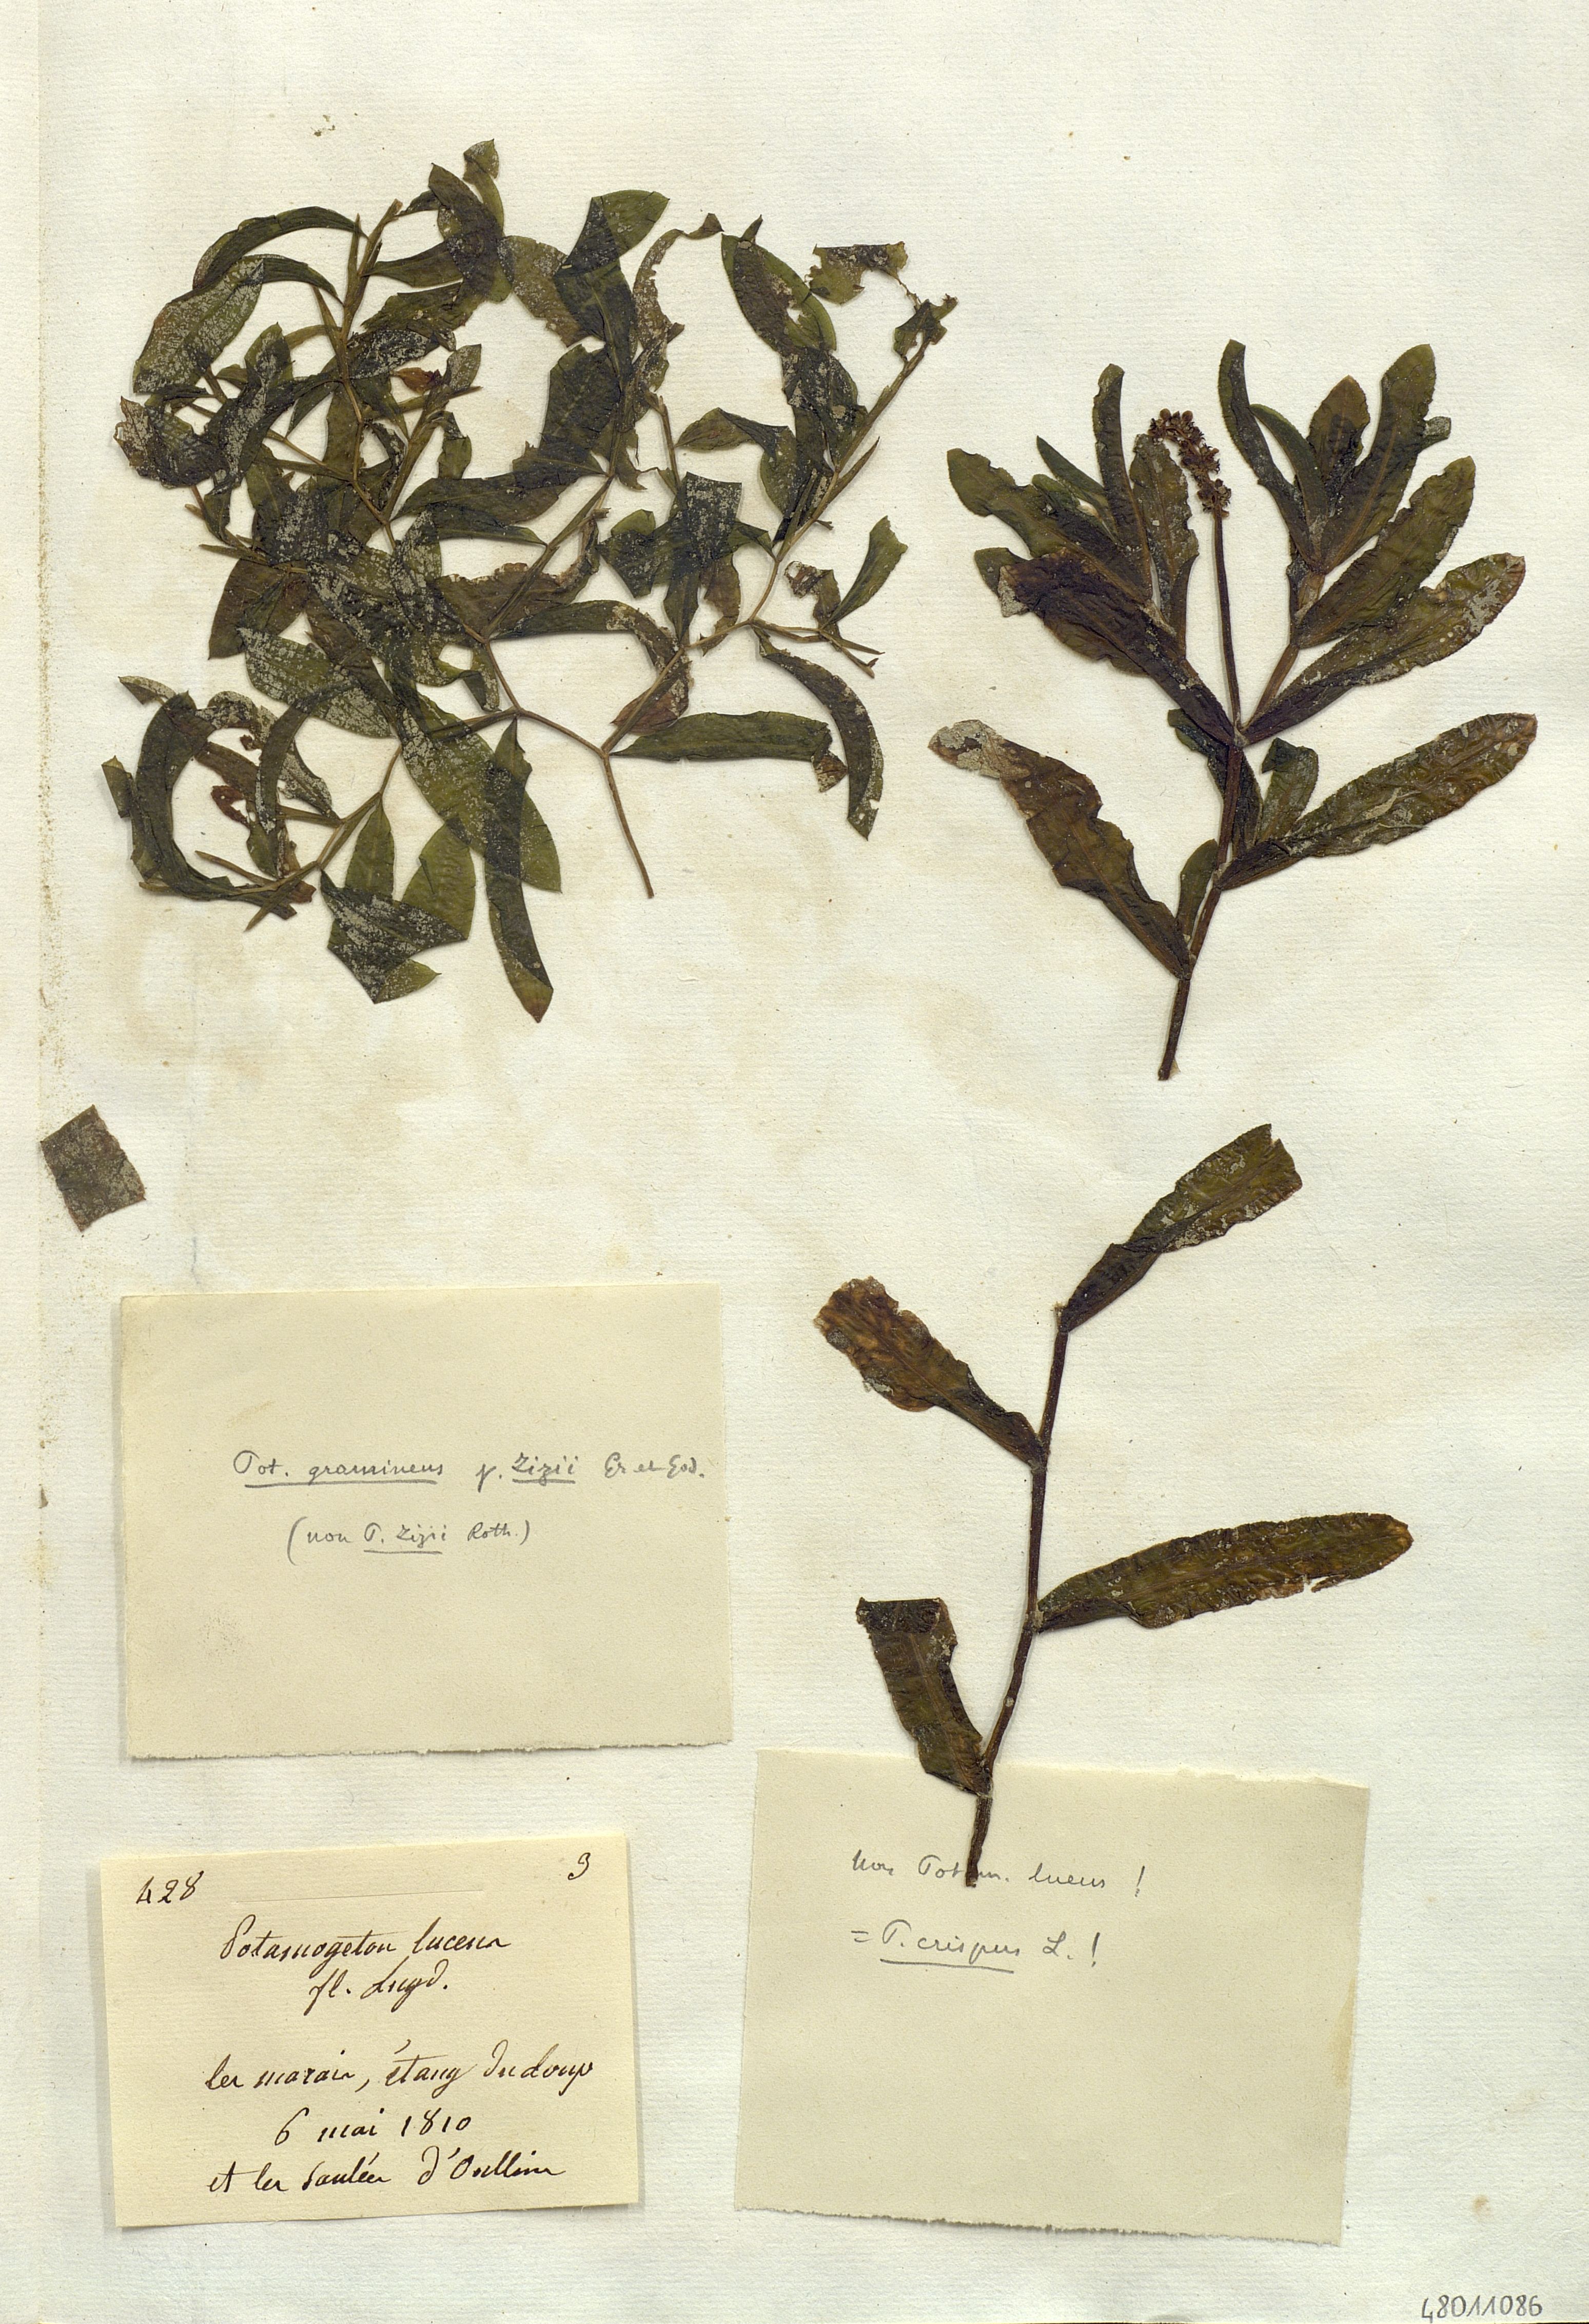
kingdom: Plantae
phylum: Tracheophyta
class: Liliopsida
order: Alismatales
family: Potamogetonaceae
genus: Potamogeton
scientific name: Potamogeton lucens
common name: Shining pondweed
